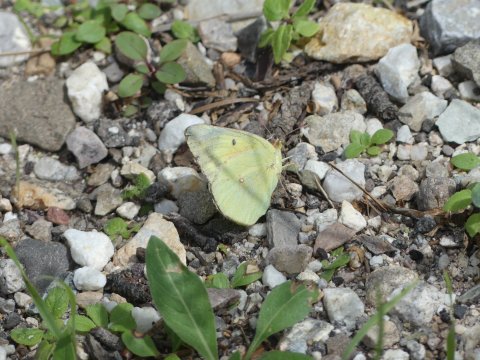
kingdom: Animalia
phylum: Arthropoda
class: Insecta
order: Lepidoptera
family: Pieridae
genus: Colias
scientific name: Colias eurytheme
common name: Orange Sulphur
